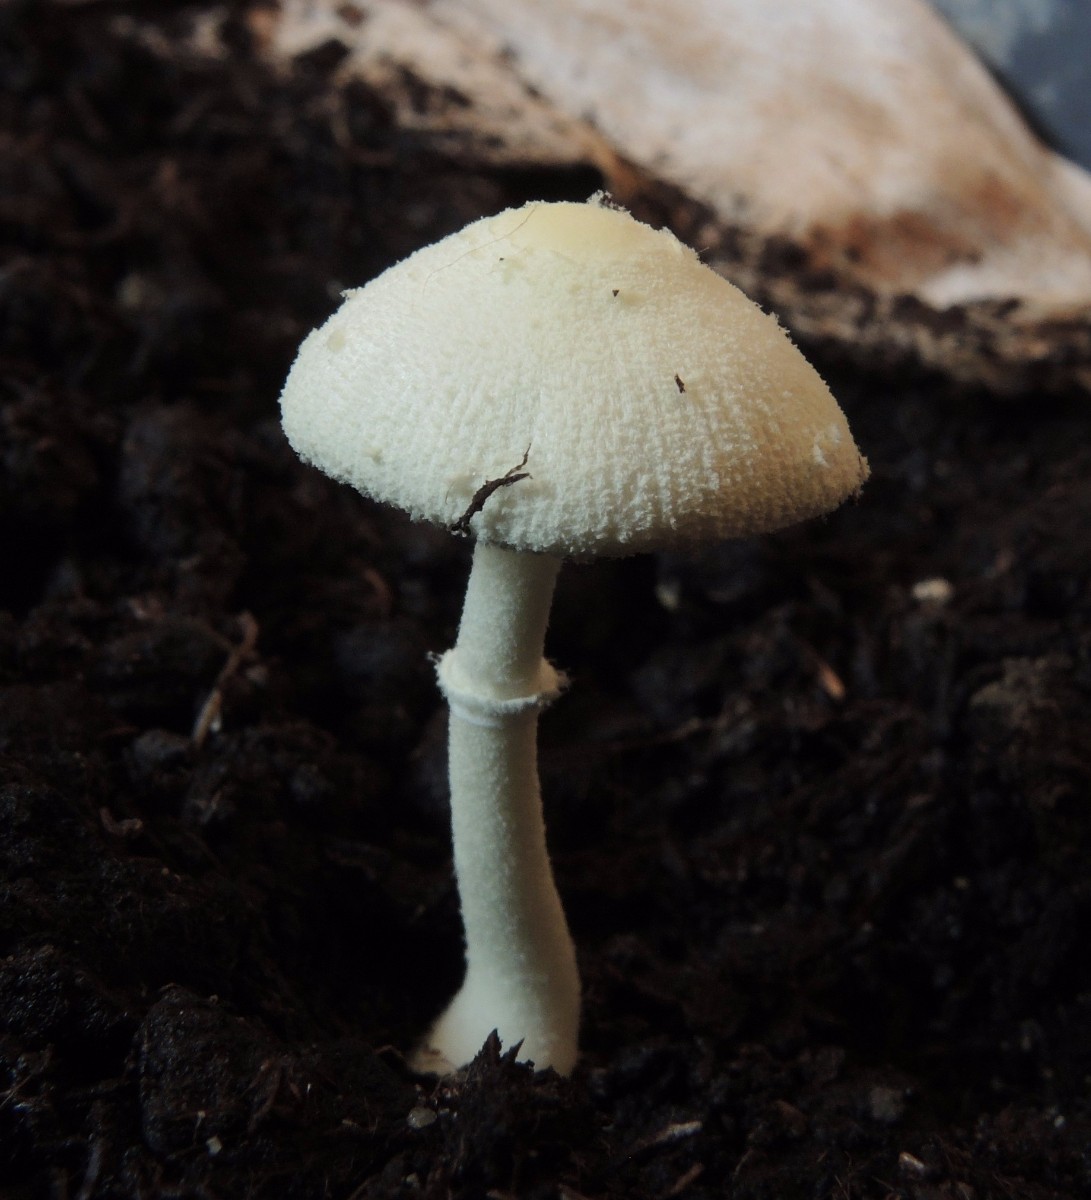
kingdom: Fungi
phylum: Basidiomycota
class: Agaricomycetes
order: Agaricales
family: Agaricaceae
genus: Leucocoprinus
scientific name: Leucocoprinus straminellus
